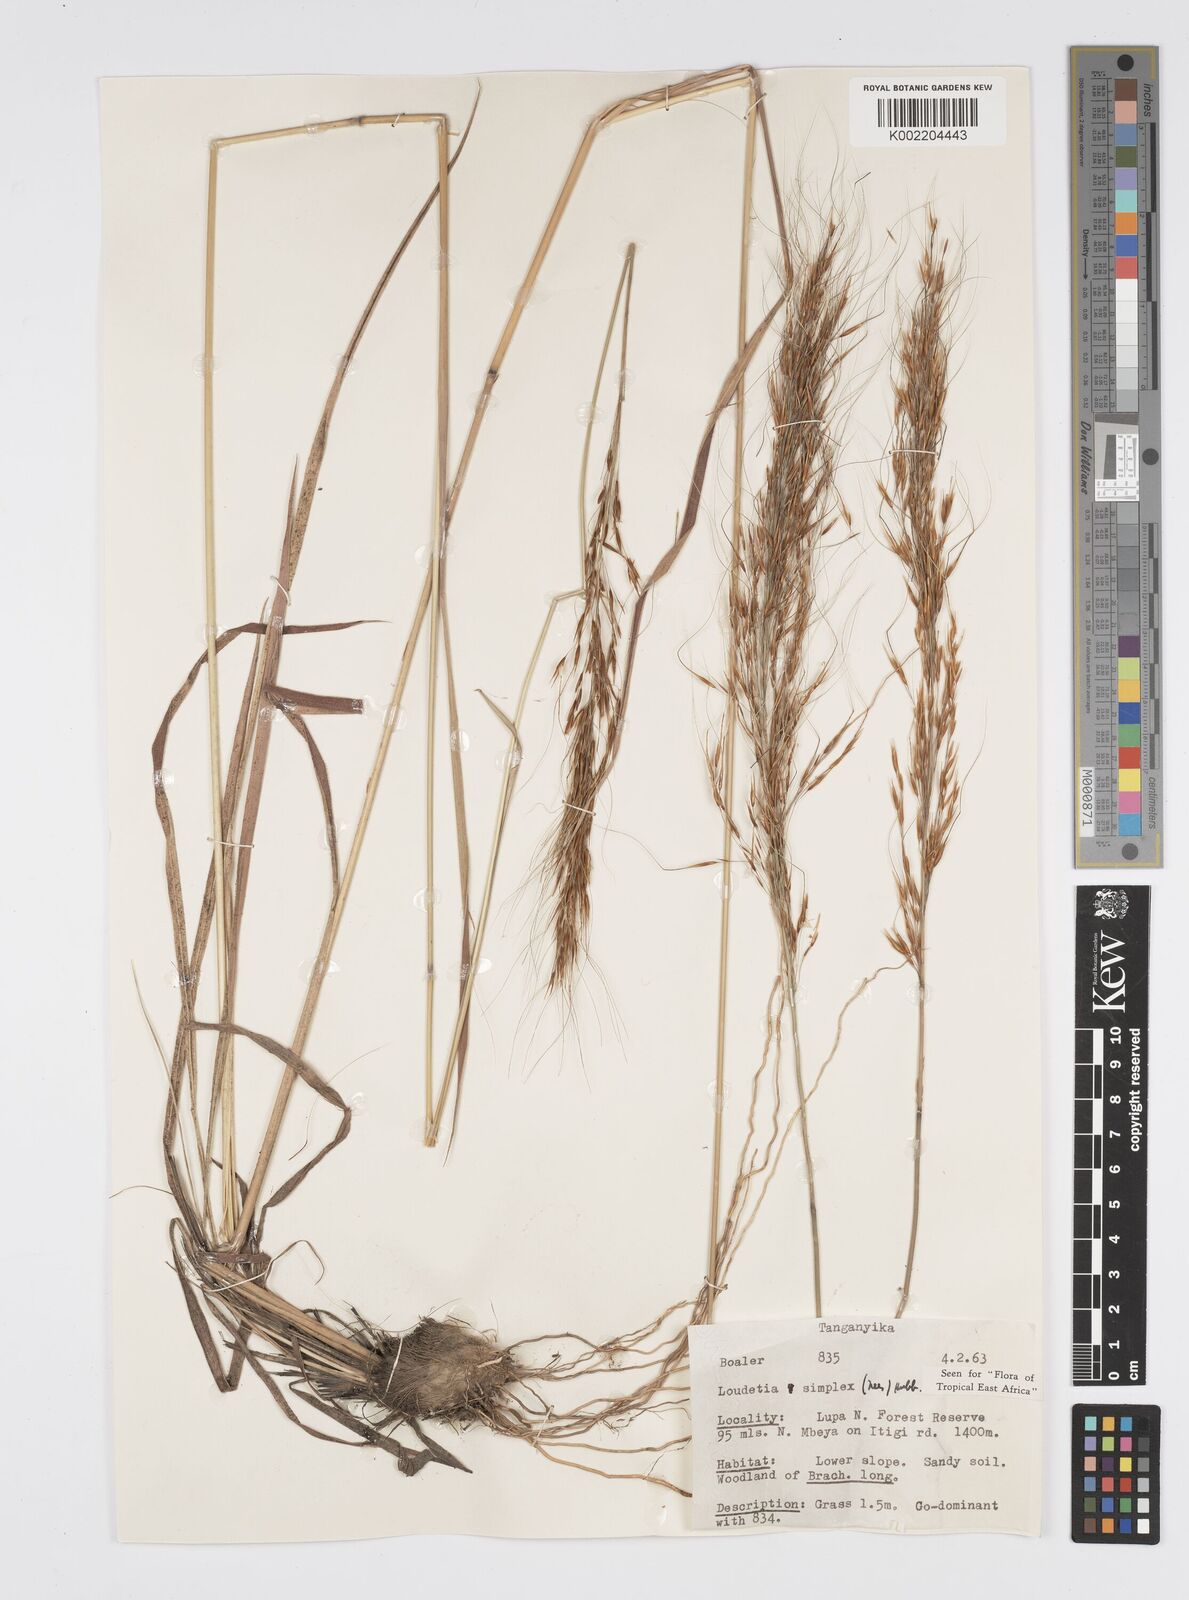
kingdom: Plantae
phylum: Tracheophyta
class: Liliopsida
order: Poales
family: Poaceae
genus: Loudetia
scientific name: Loudetia simplex
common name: Common russet grass
